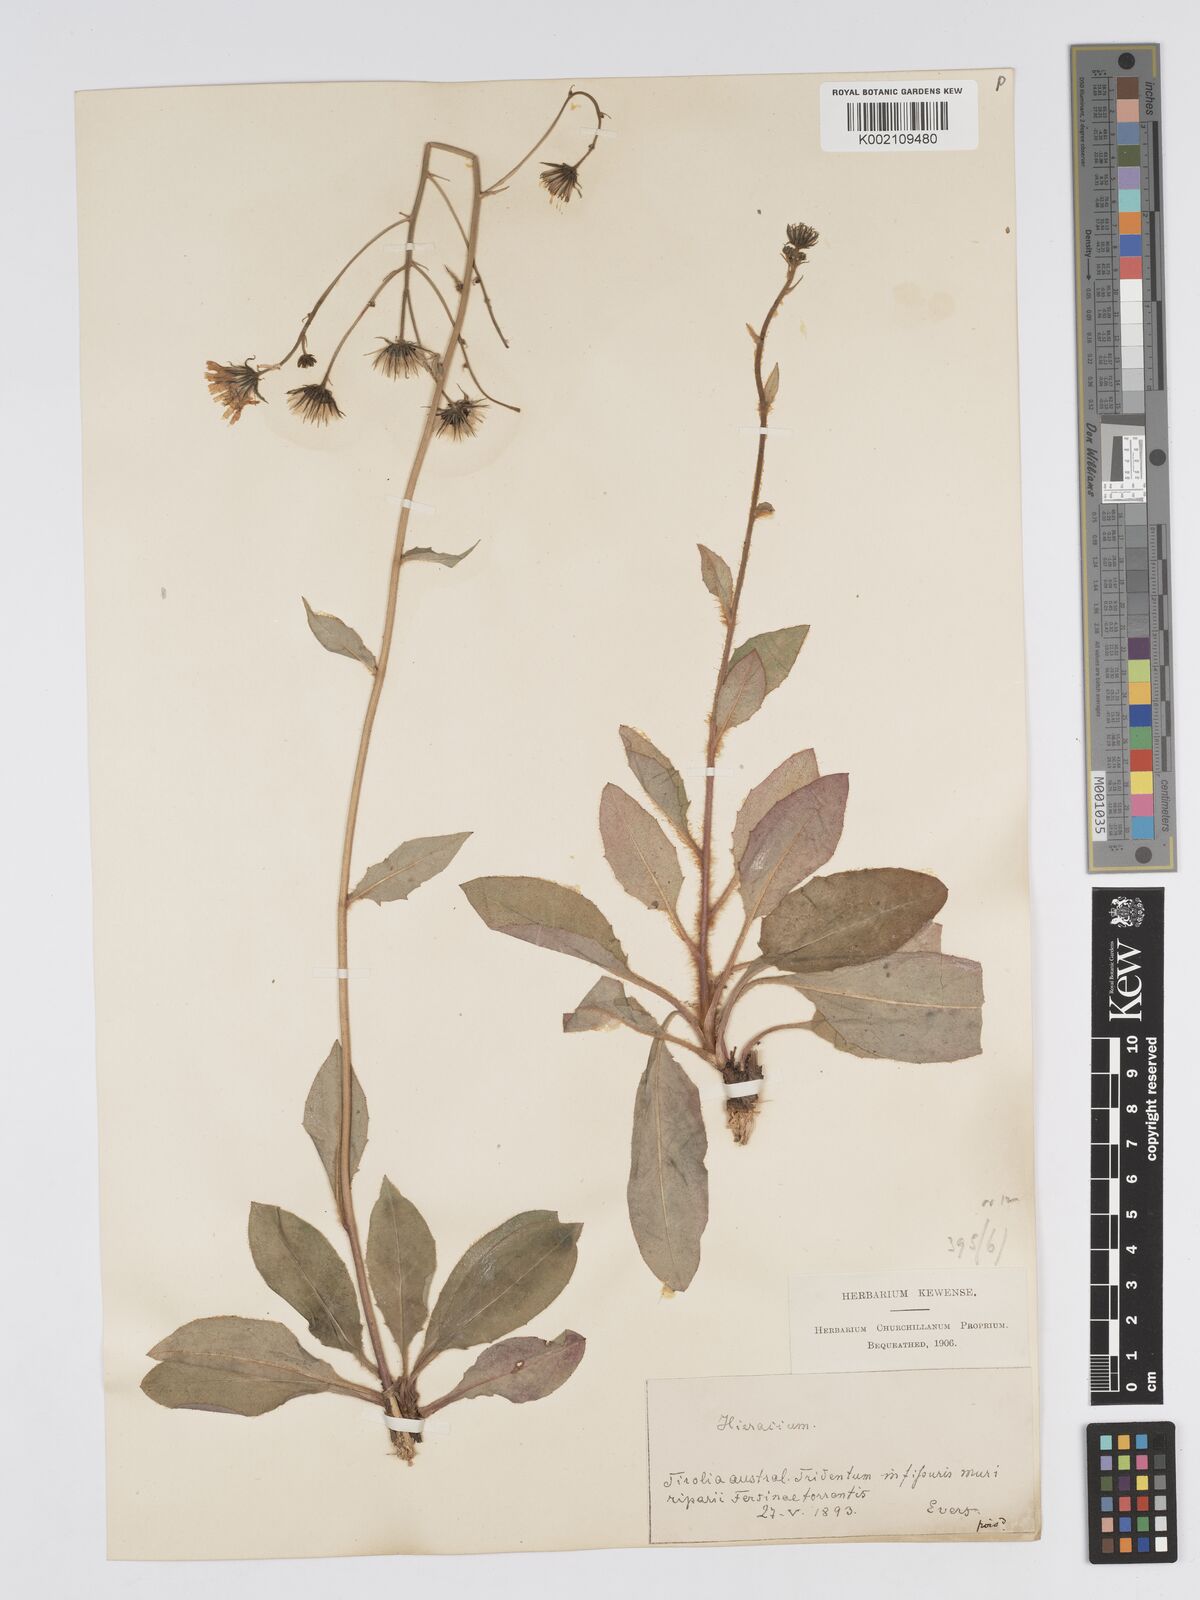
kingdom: Plantae
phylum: Tracheophyta
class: Magnoliopsida
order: Asterales
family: Asteraceae
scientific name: Asteraceae
